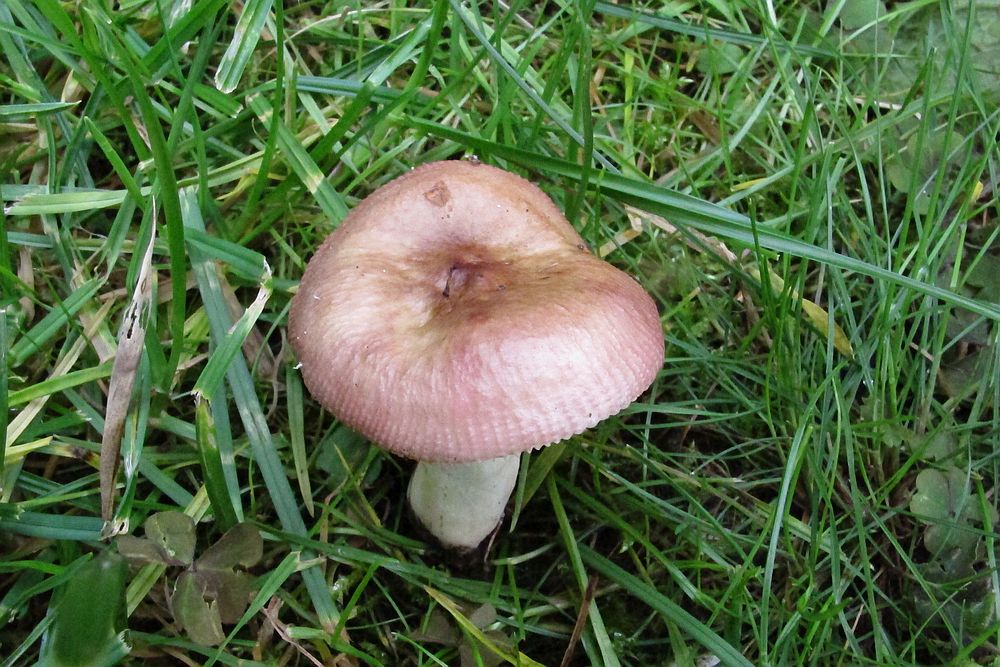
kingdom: Fungi
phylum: Basidiomycota
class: Agaricomycetes
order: Russulales
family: Russulaceae
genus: Russula
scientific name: Russula versicolor
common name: foranderlig skørhat
